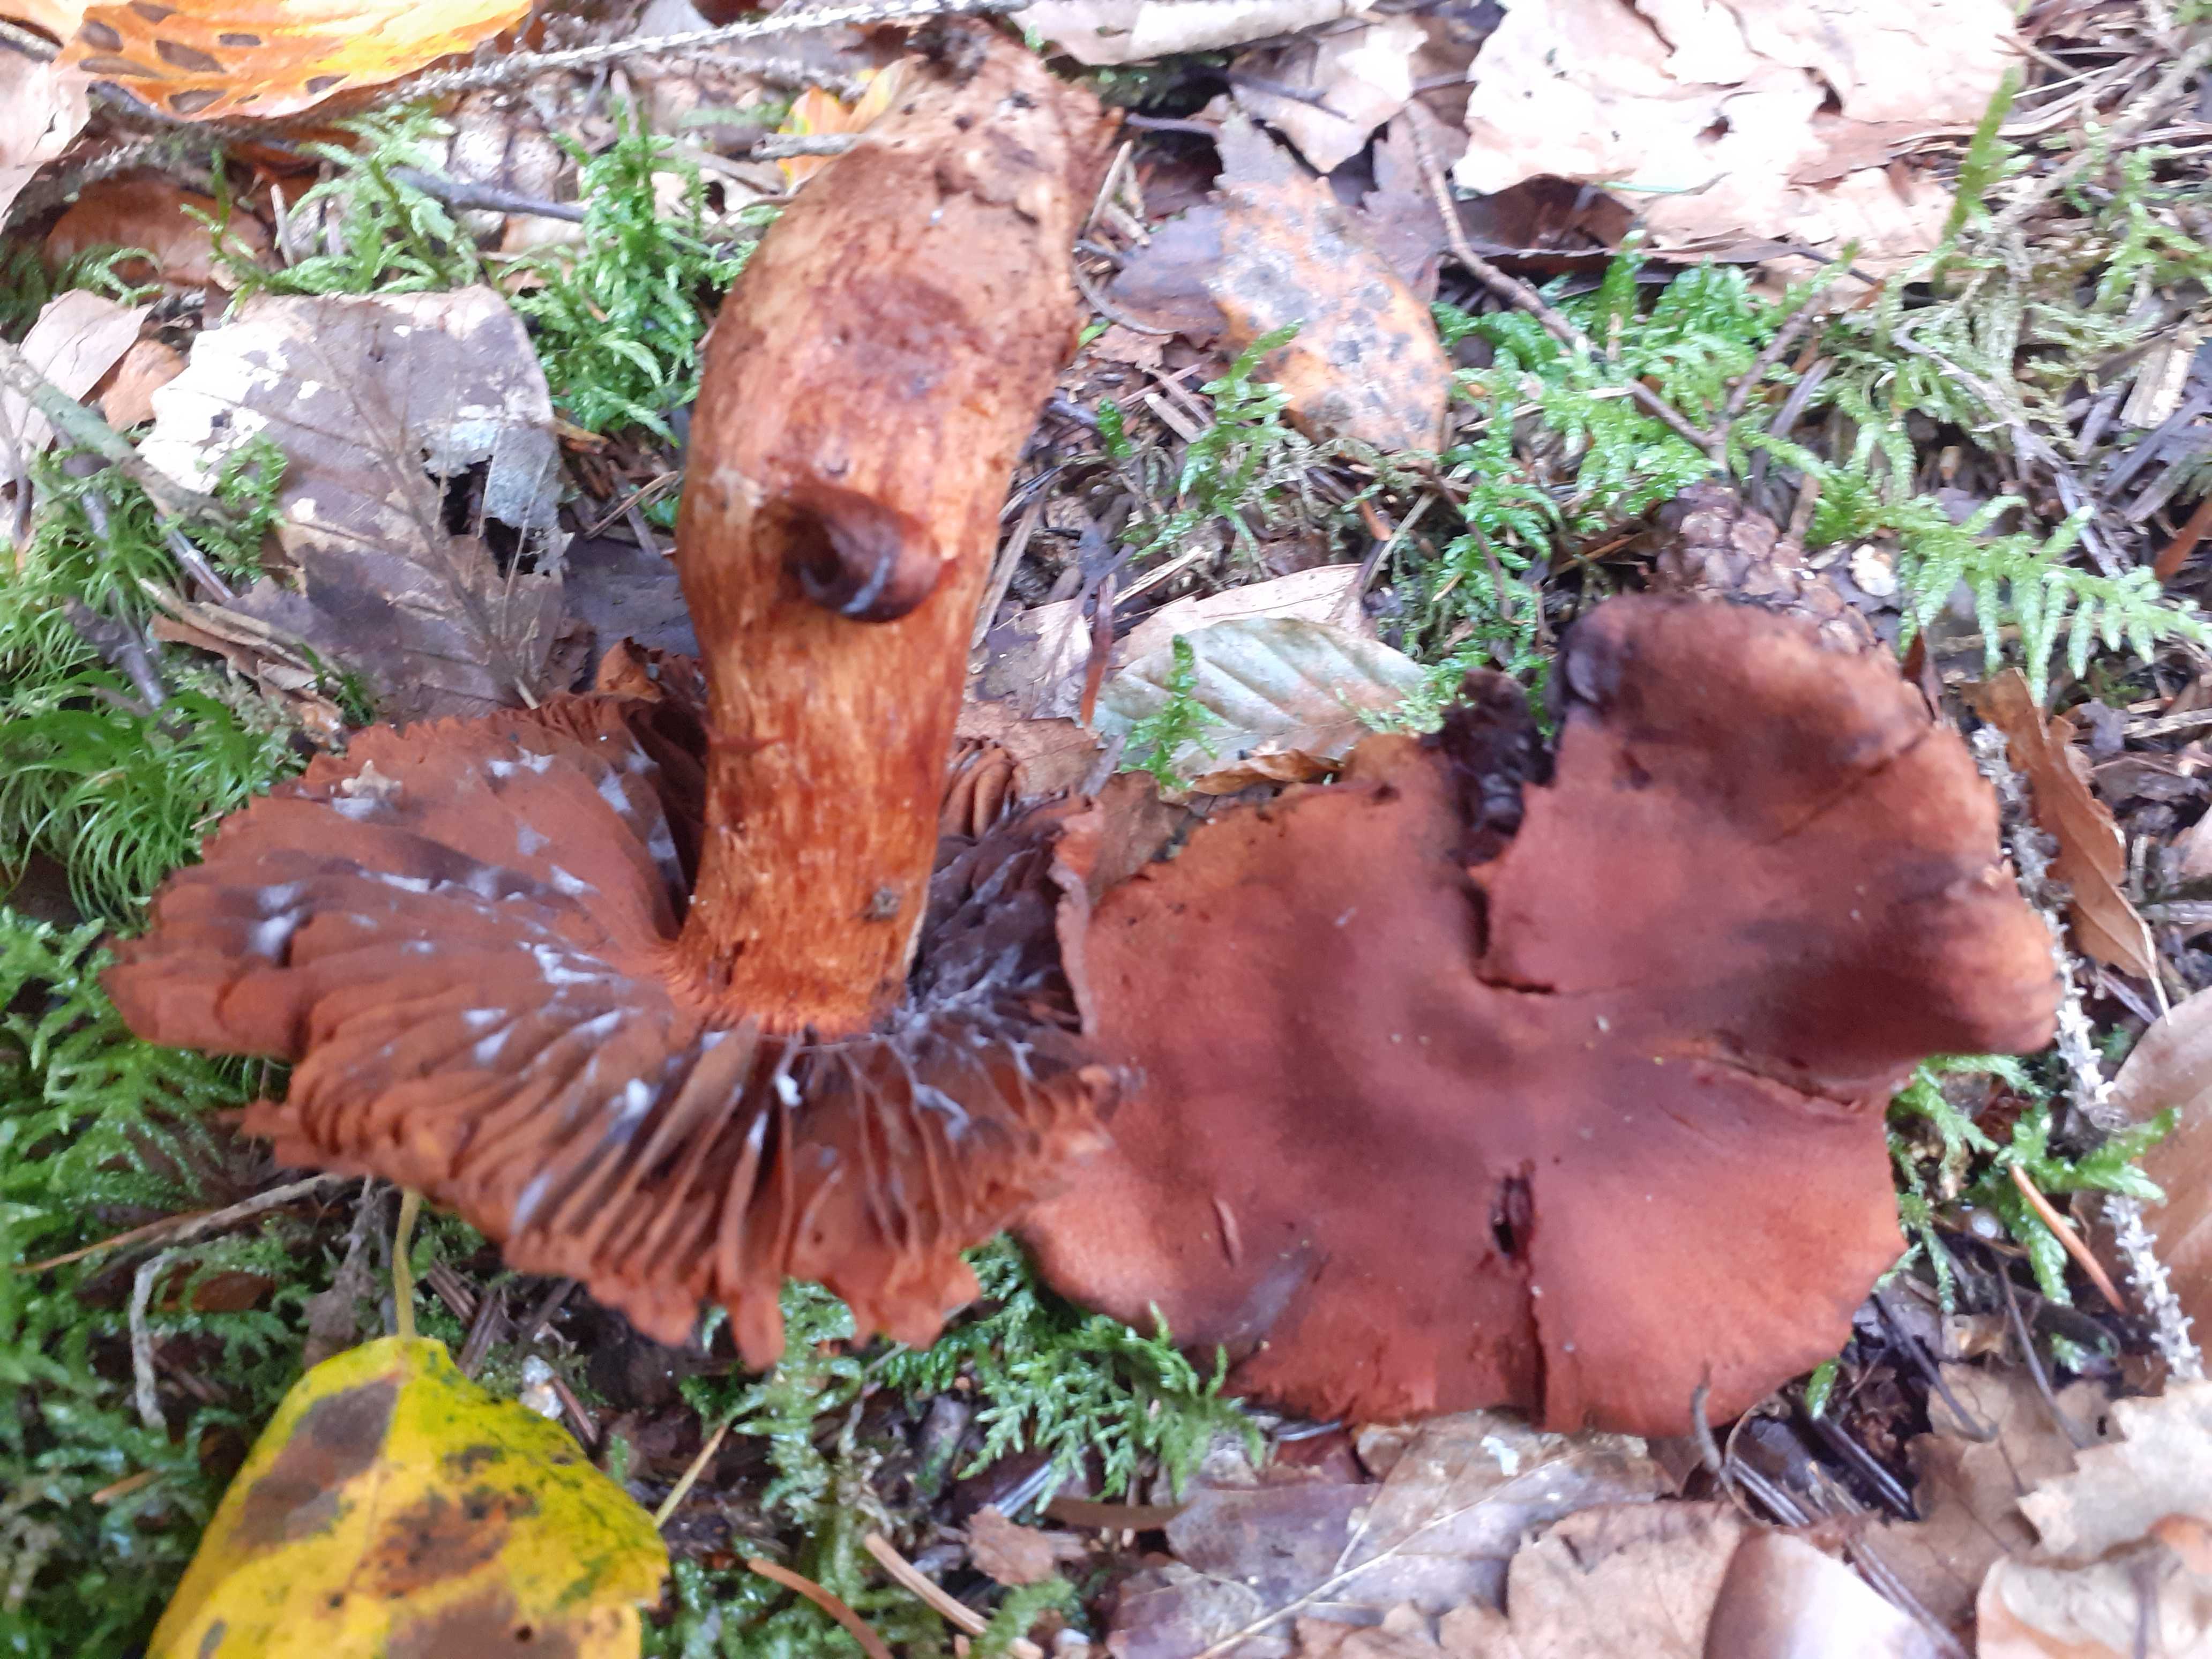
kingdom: Fungi
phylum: Basidiomycota
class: Agaricomycetes
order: Agaricales
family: Cortinariaceae
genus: Cortinarius
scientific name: Cortinarius rubellus
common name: puklet gift-slørhat
